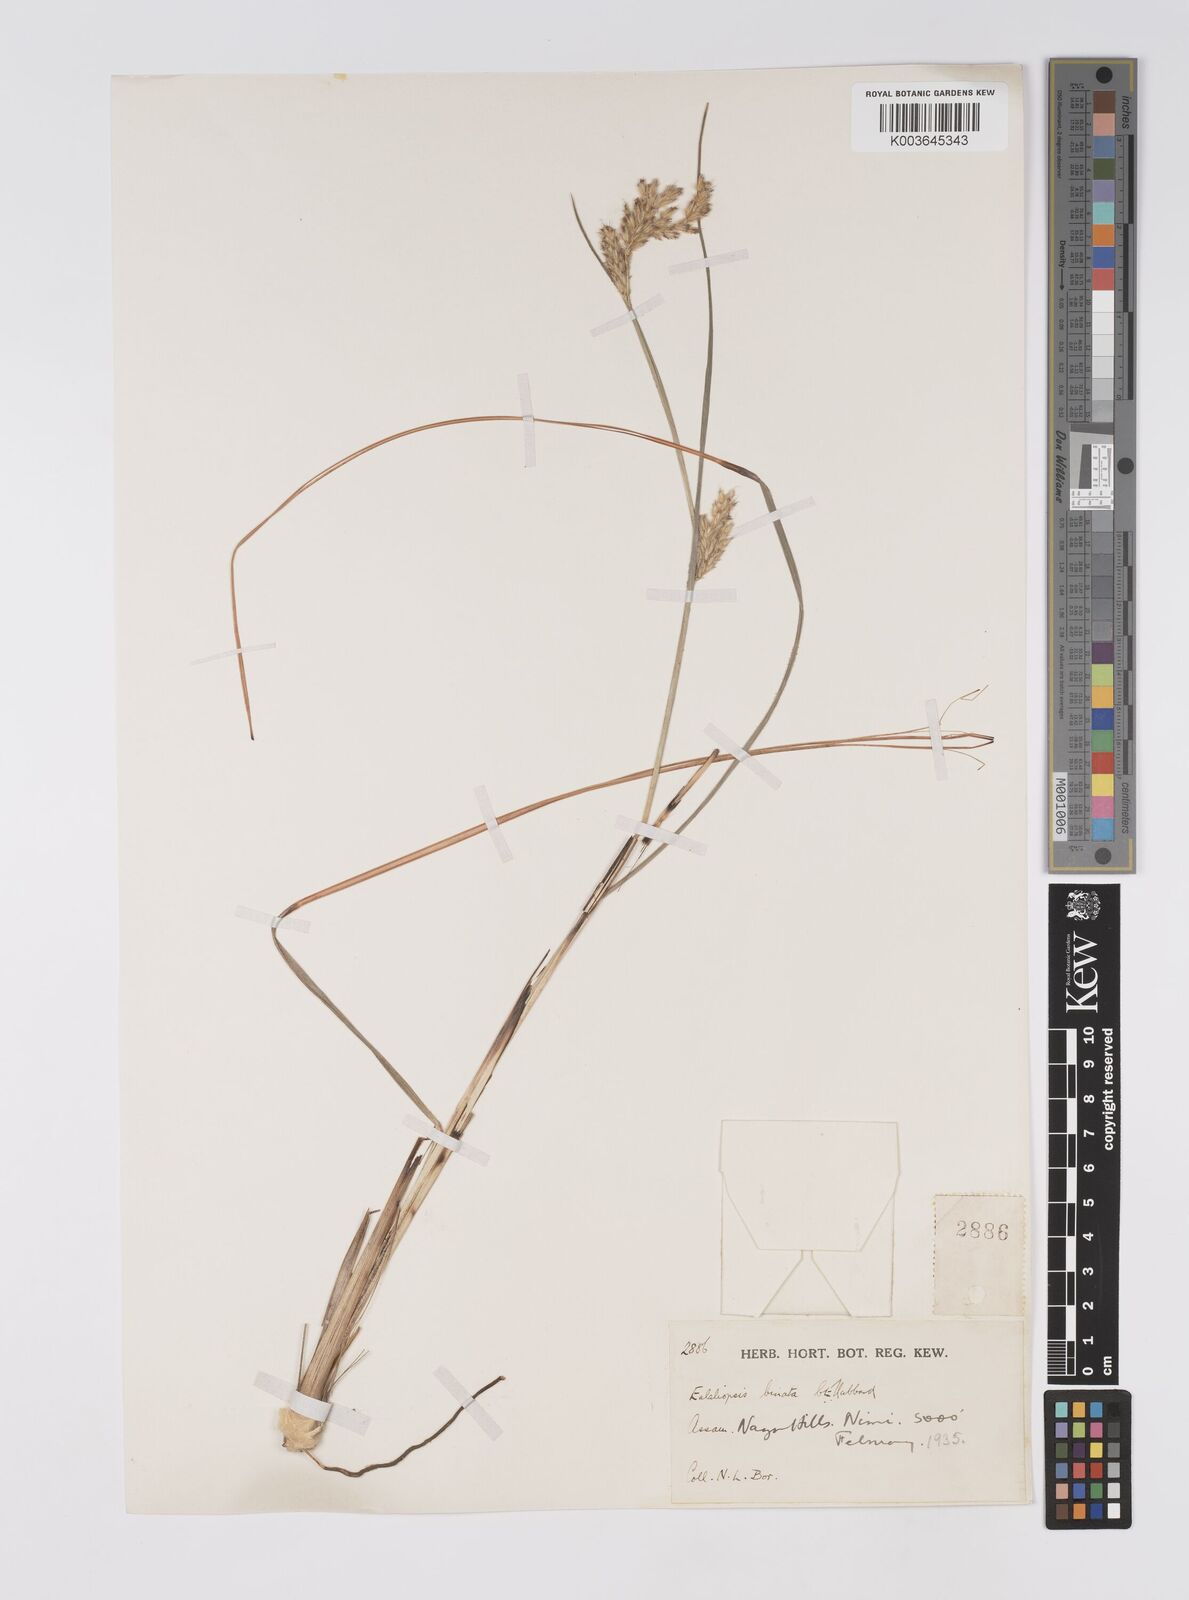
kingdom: Plantae
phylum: Tracheophyta
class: Liliopsida
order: Poales
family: Poaceae
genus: Eulaliopsis
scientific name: Eulaliopsis binata
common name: Baib grass
